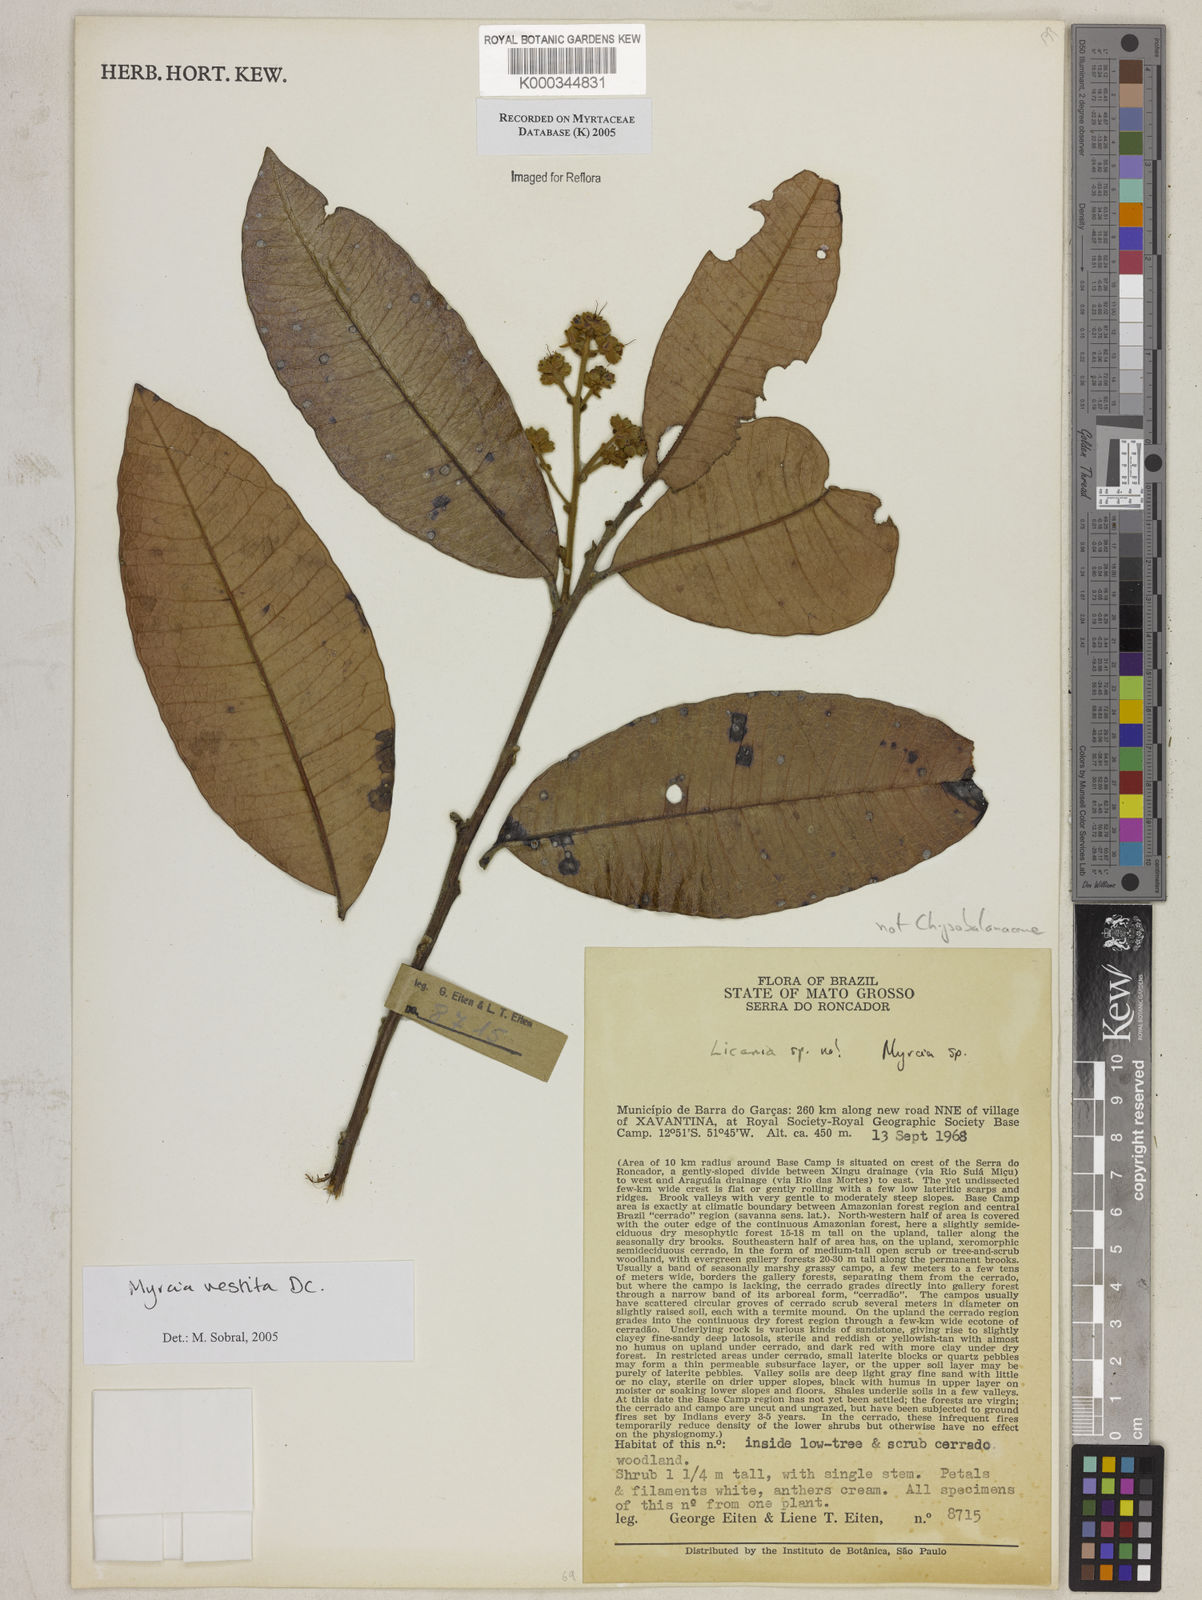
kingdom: Plantae
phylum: Tracheophyta
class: Magnoliopsida
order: Myrtales
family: Myrtaceae
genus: Myrcia
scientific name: Myrcia vestita
